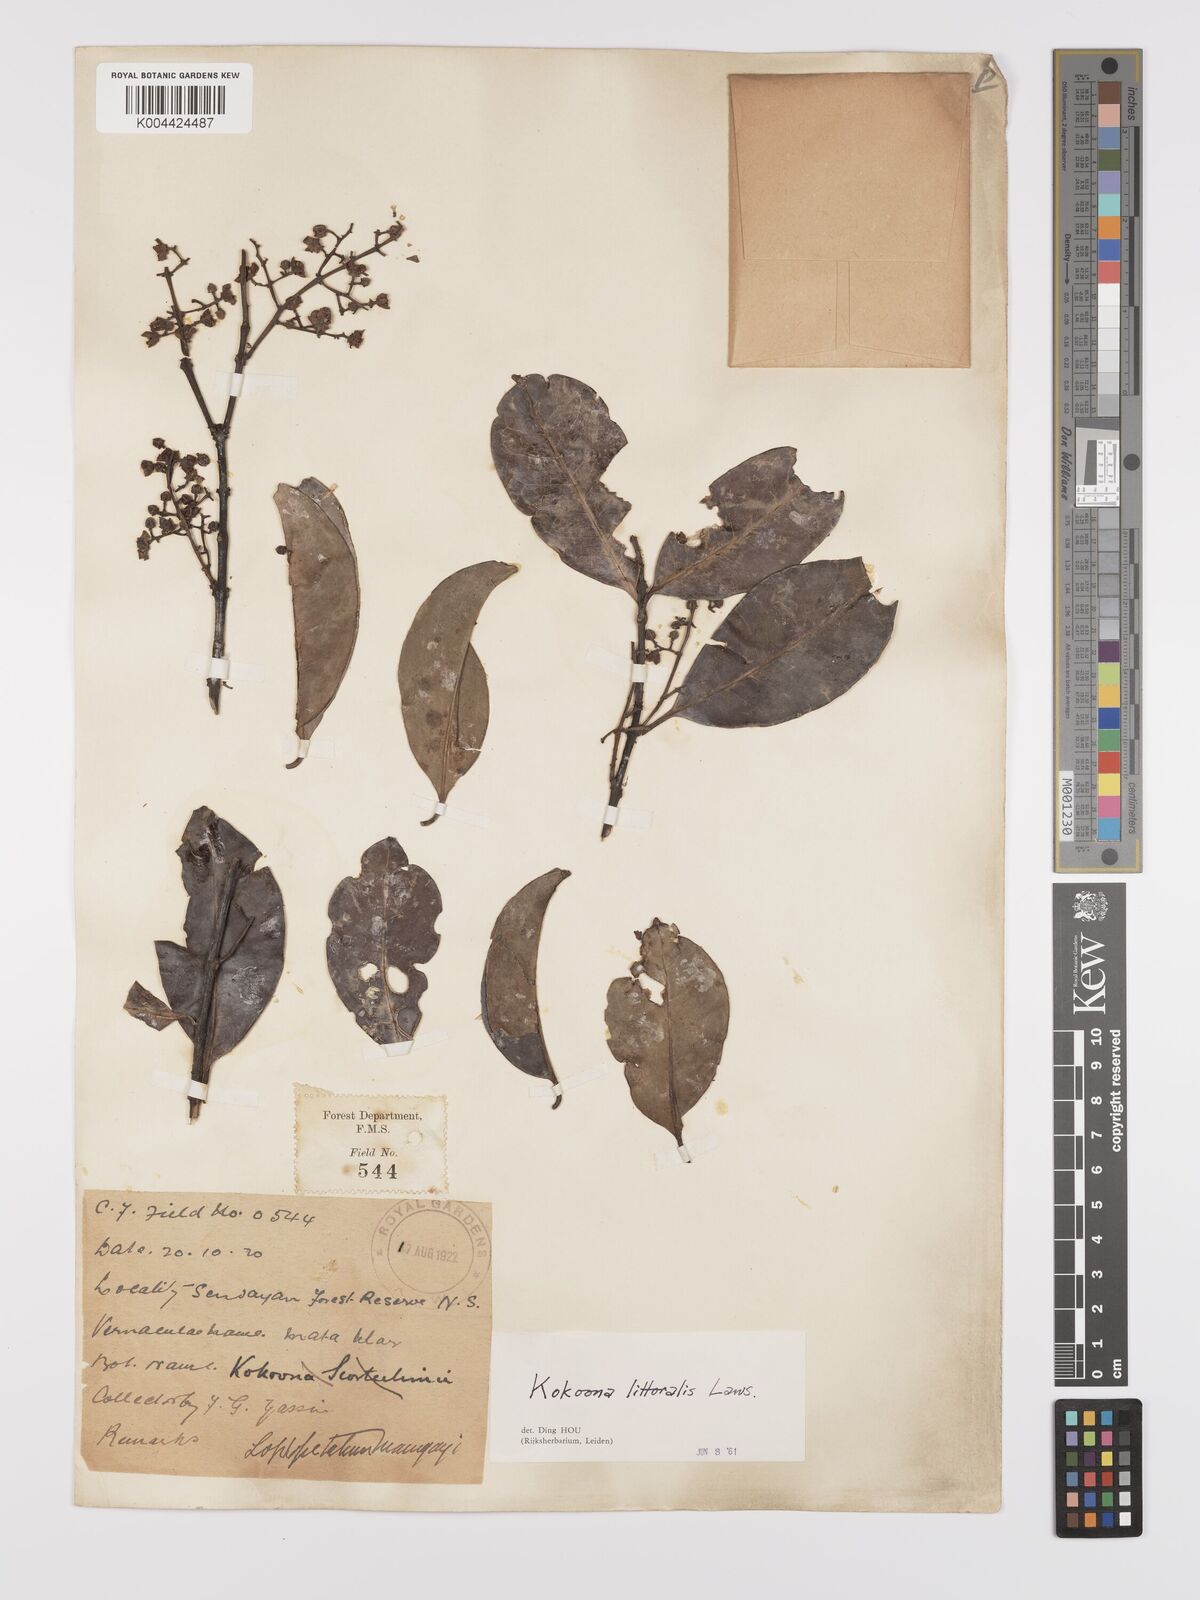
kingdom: Plantae
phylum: Tracheophyta
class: Magnoliopsida
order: Celastrales
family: Celastraceae
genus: Kokoona
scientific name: Kokoona littoralis
